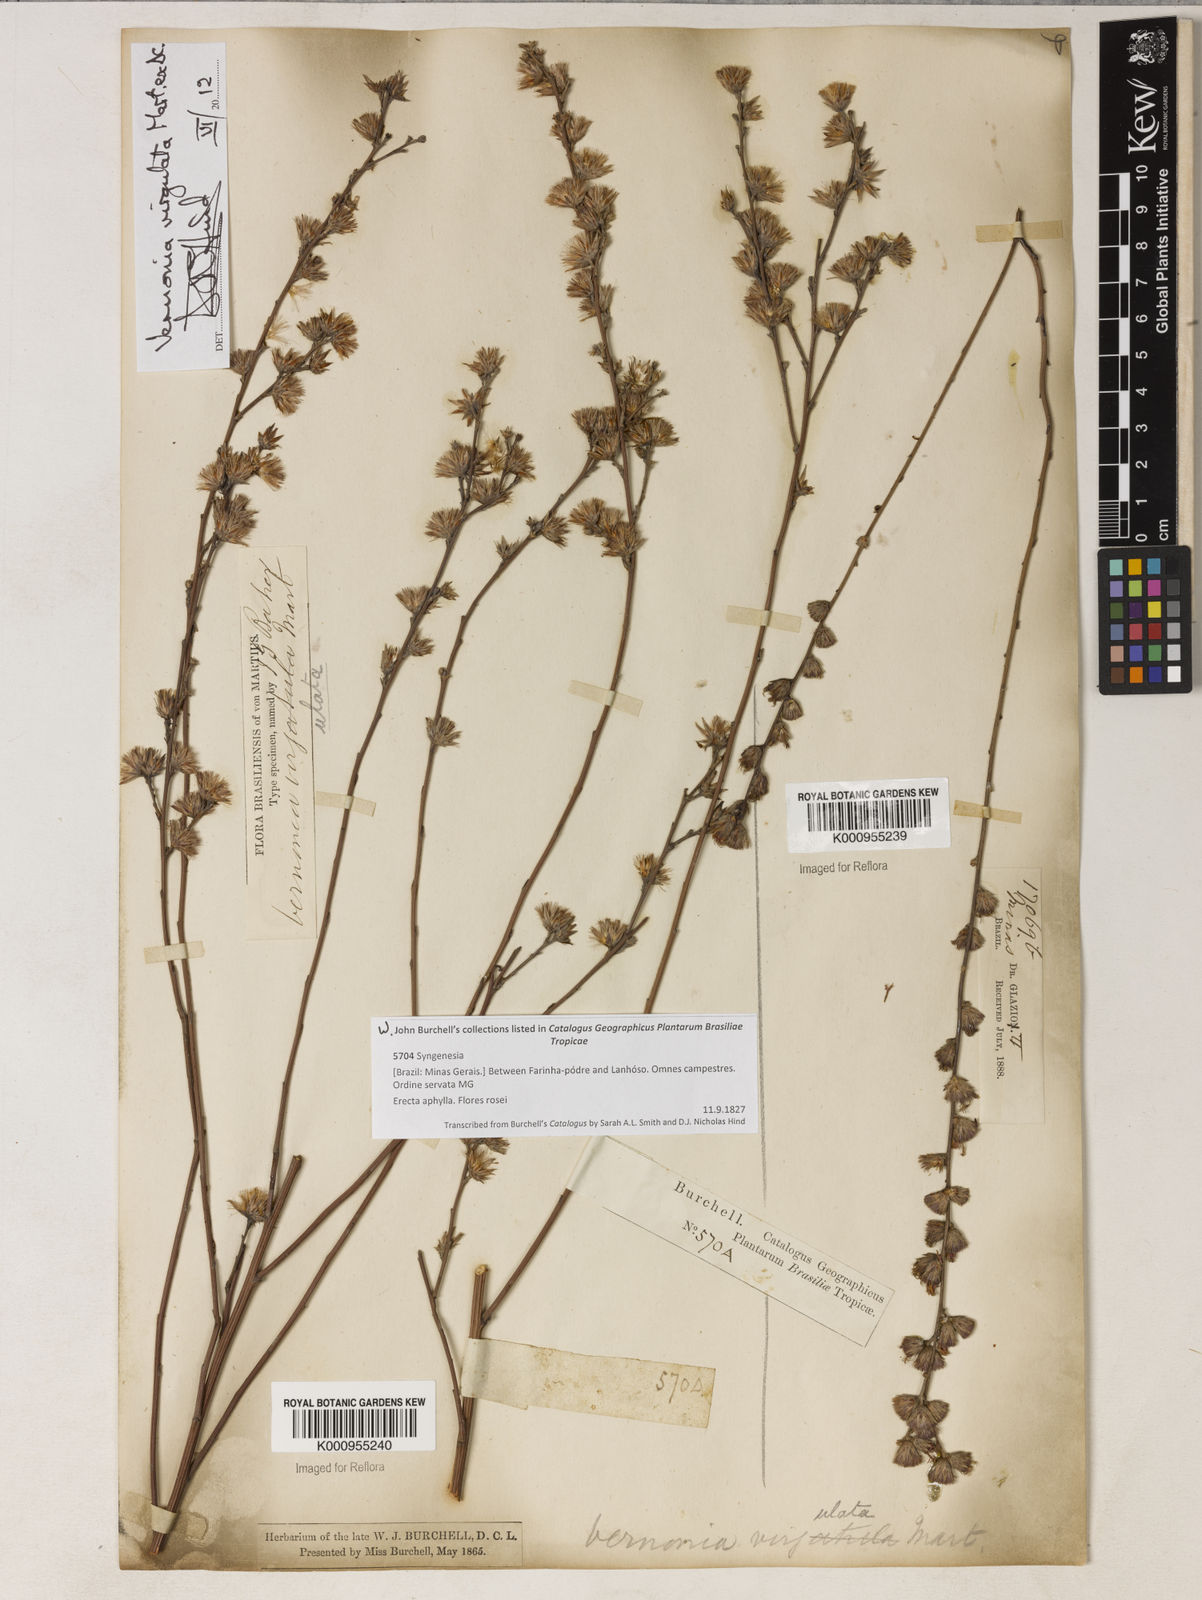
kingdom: Plantae
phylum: Tracheophyta
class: Magnoliopsida
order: Asterales
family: Asteraceae
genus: Lessingianthus
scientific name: Lessingianthus virgulatus
